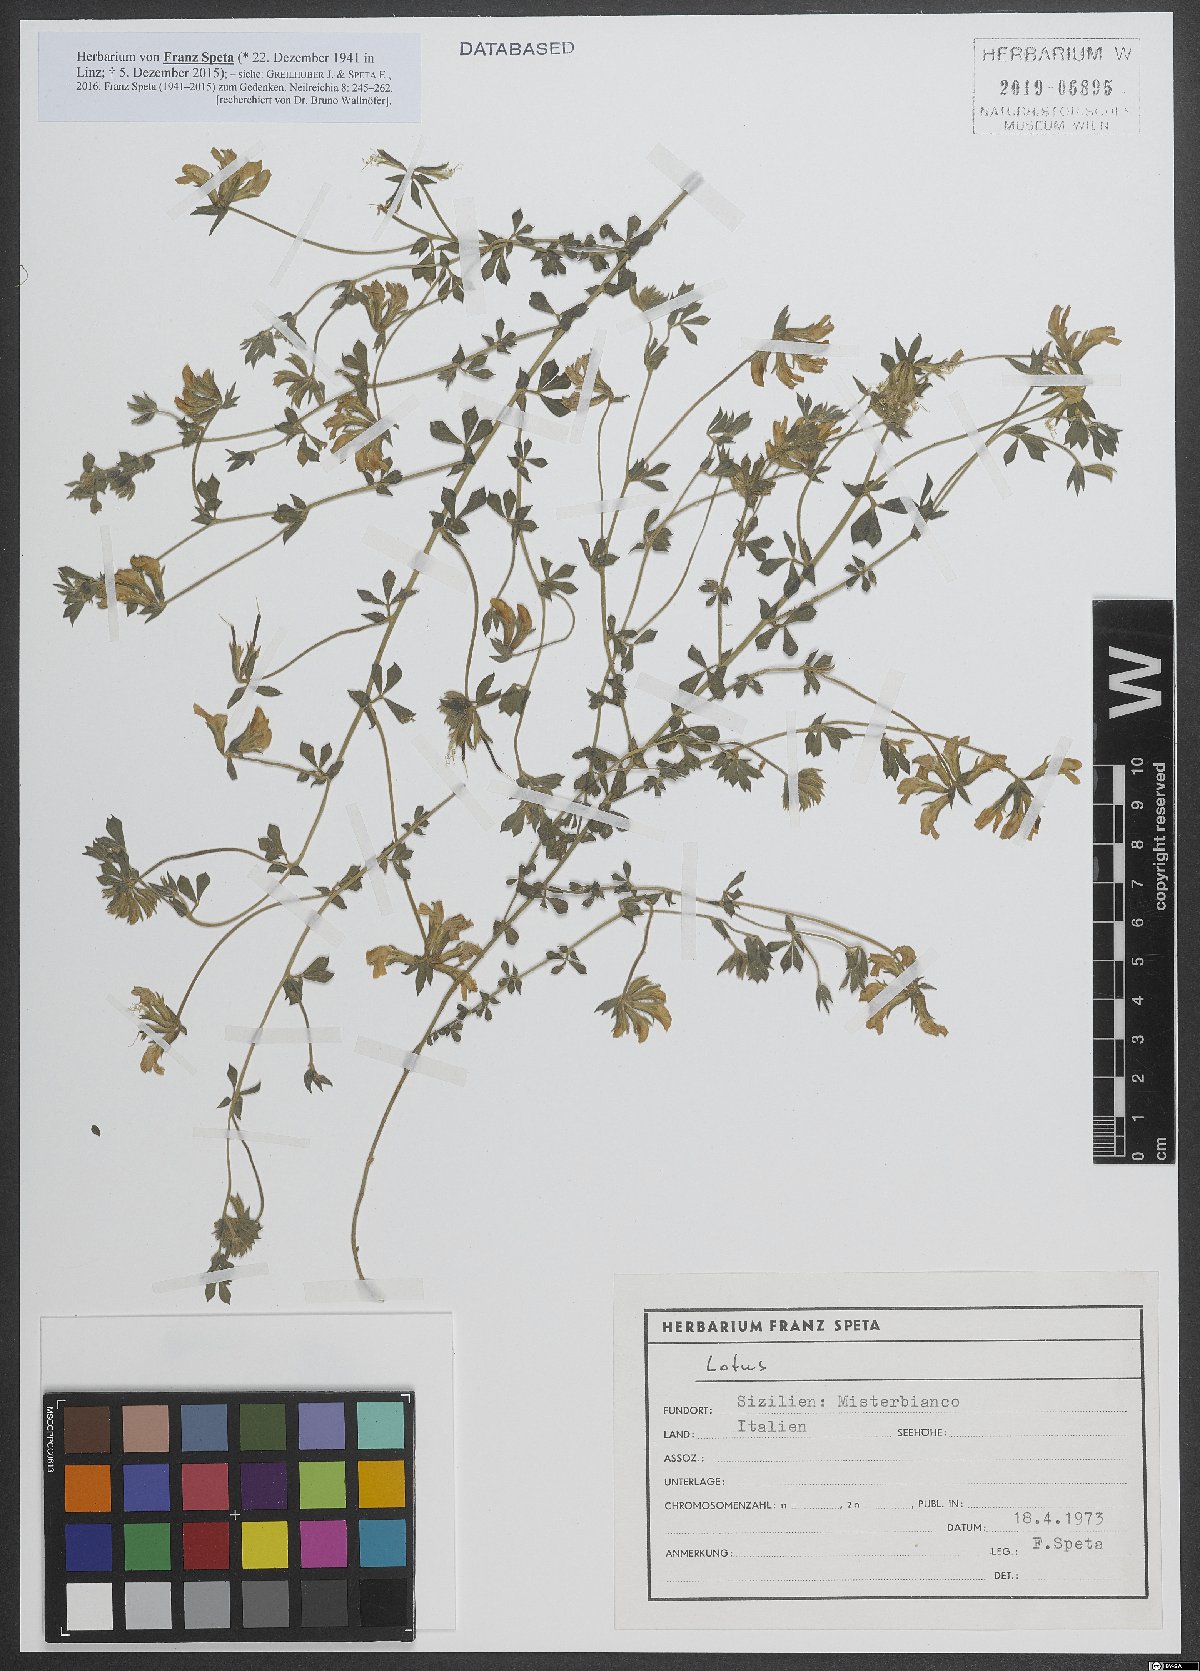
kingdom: Plantae
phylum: Tracheophyta
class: Magnoliopsida
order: Fabales
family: Fabaceae
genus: Lotus
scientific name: Lotus
